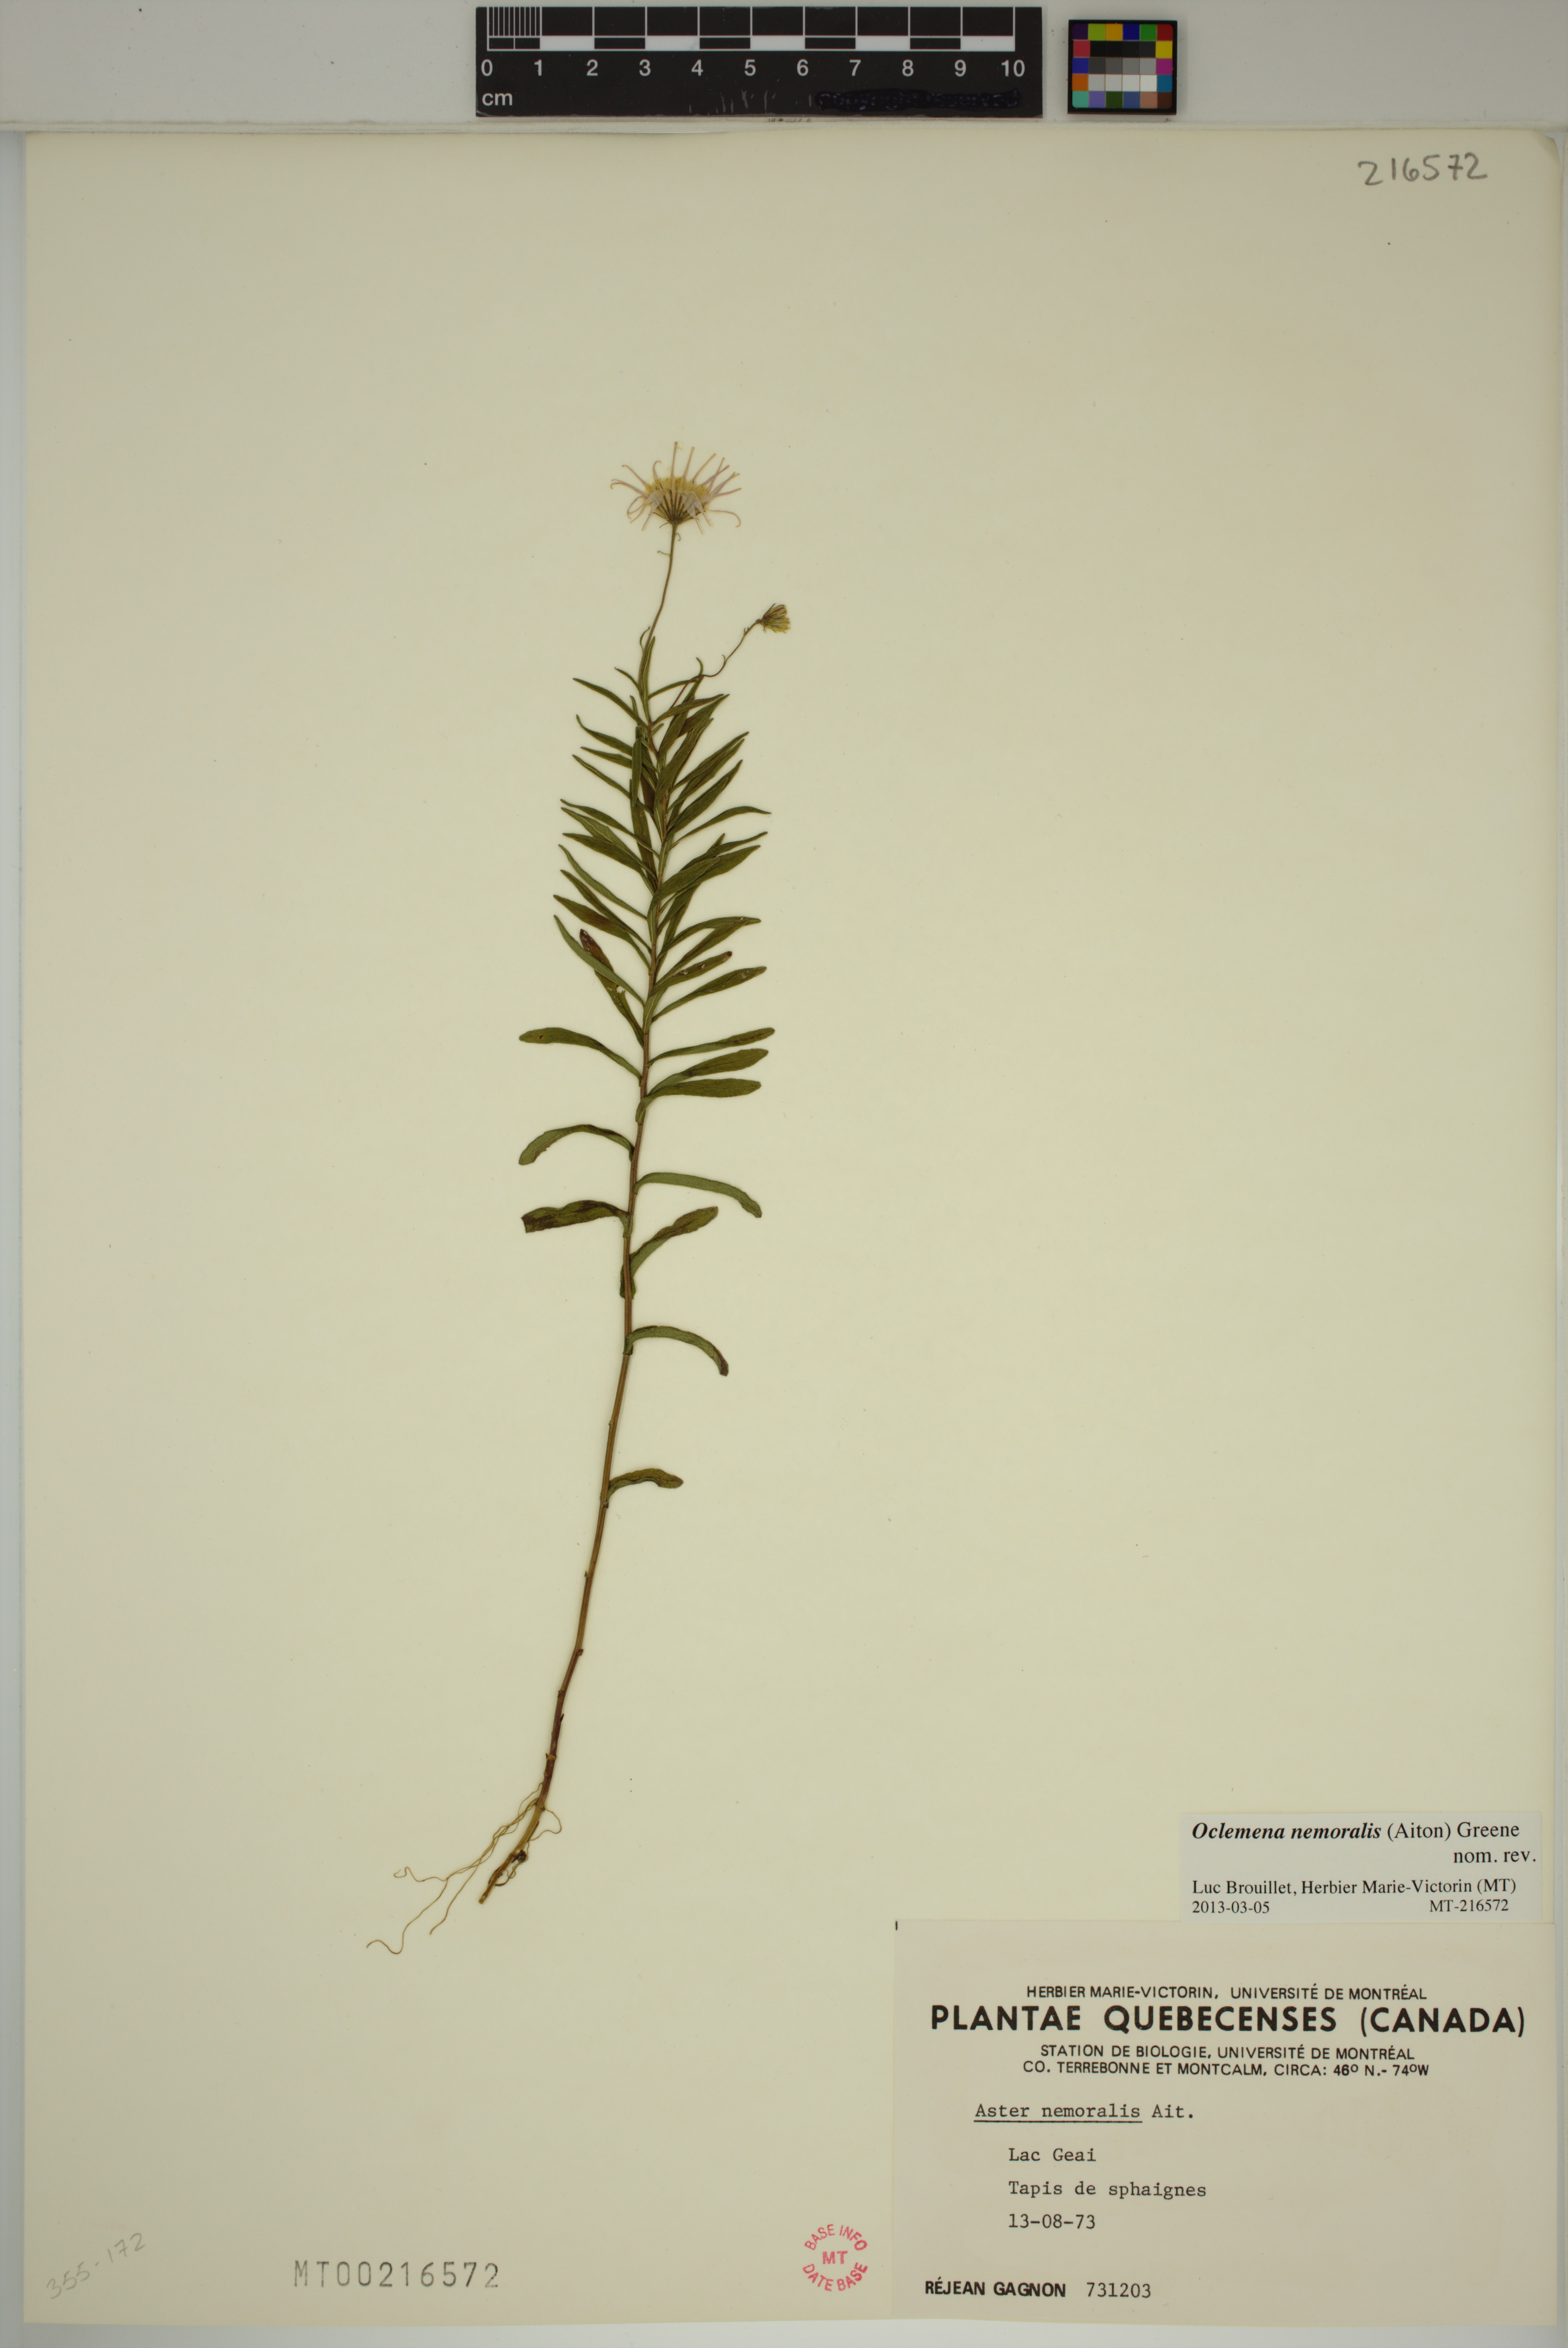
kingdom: Plantae
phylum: Tracheophyta
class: Magnoliopsida
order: Asterales
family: Asteraceae
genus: Oclemena
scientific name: Oclemena nemoralis
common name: Bog aster
